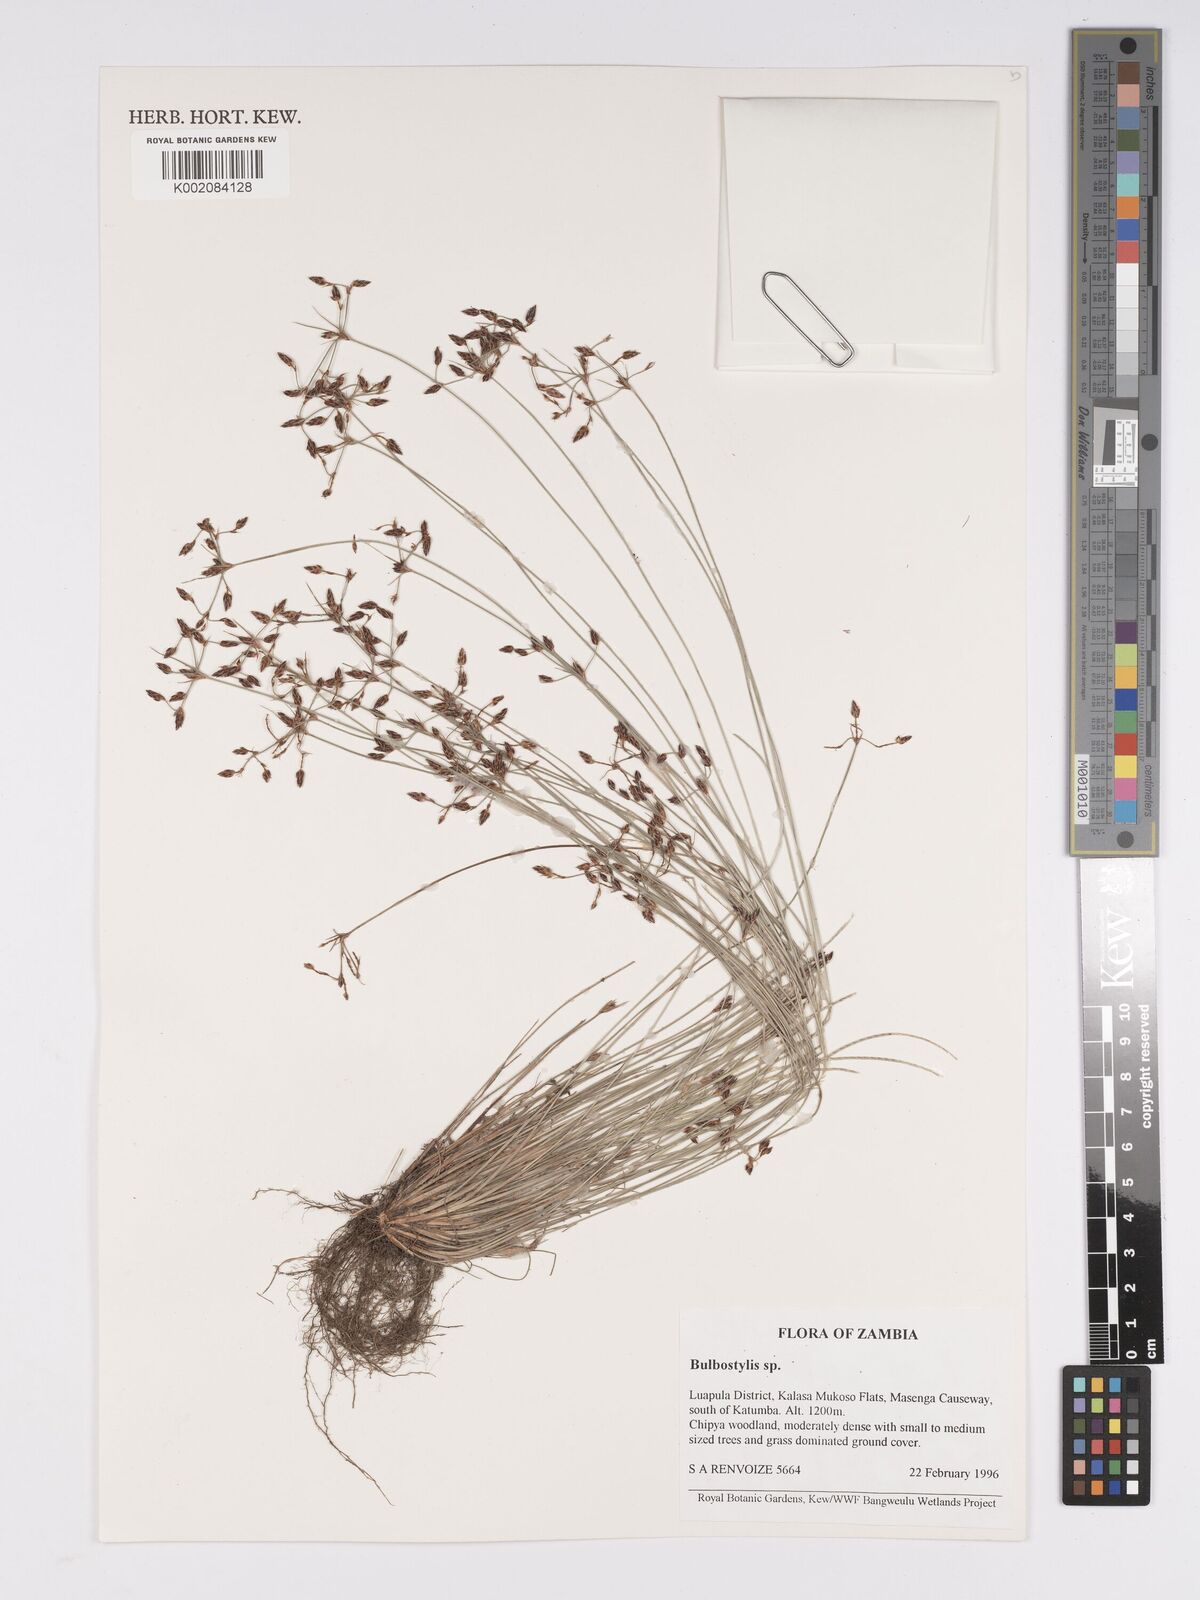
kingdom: Plantae
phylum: Tracheophyta
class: Liliopsida
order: Poales
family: Cyperaceae
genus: Bulbostylis
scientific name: Bulbostylis
